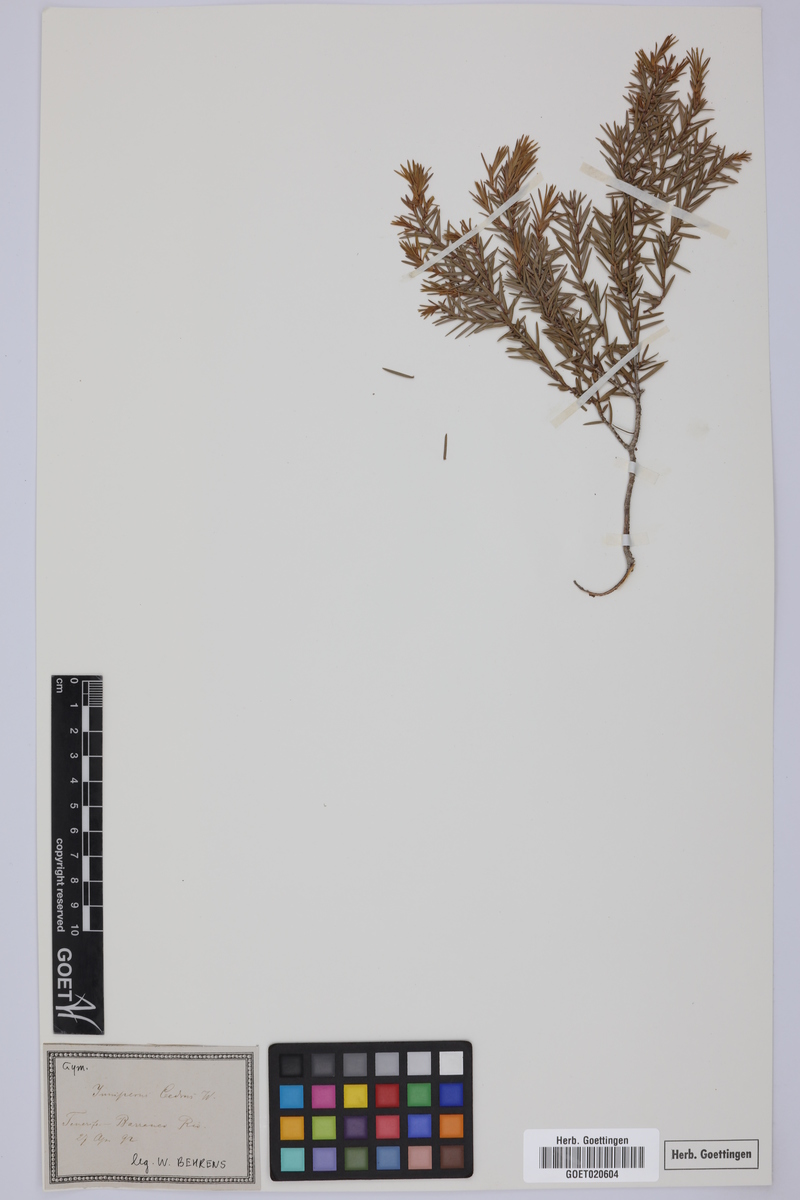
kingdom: Plantae
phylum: Tracheophyta
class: Pinopsida
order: Pinales
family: Cupressaceae
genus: Juniperus
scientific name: Juniperus cedrus
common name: Canary islands juniper
